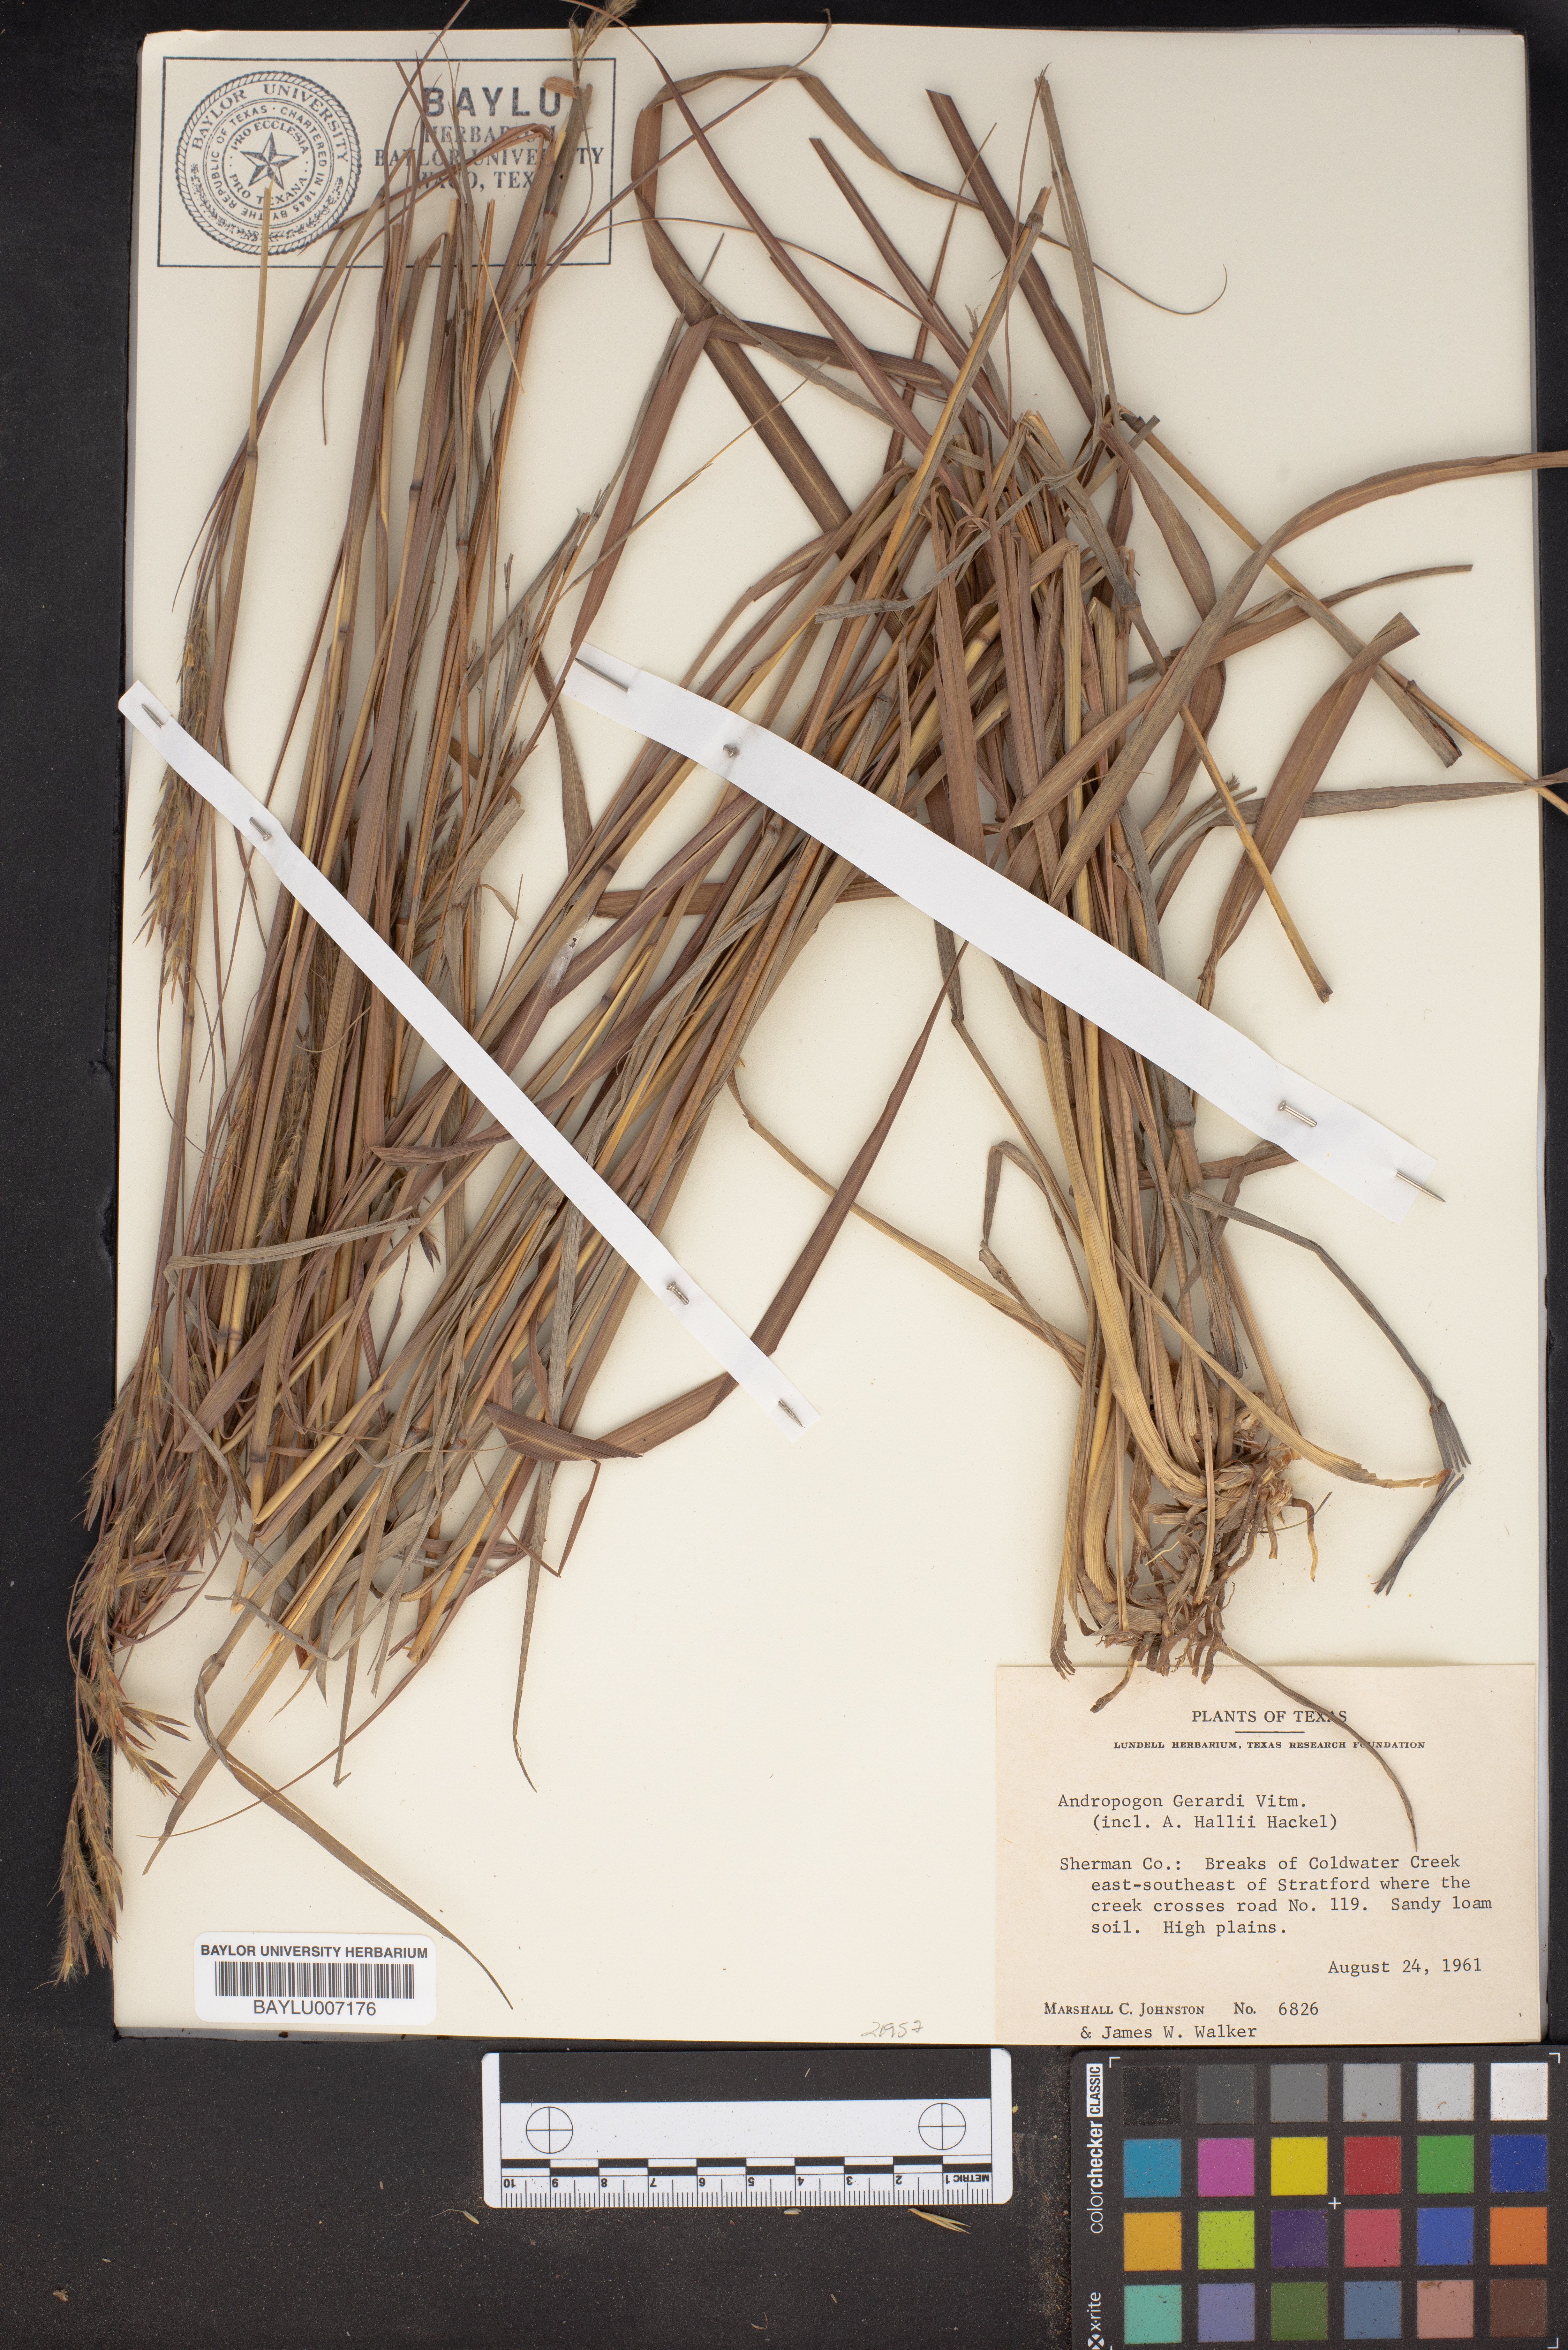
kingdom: Plantae
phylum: Tracheophyta
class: Liliopsida
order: Poales
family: Poaceae
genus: Andropogon
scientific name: Andropogon gerardi
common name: Big bluestem
